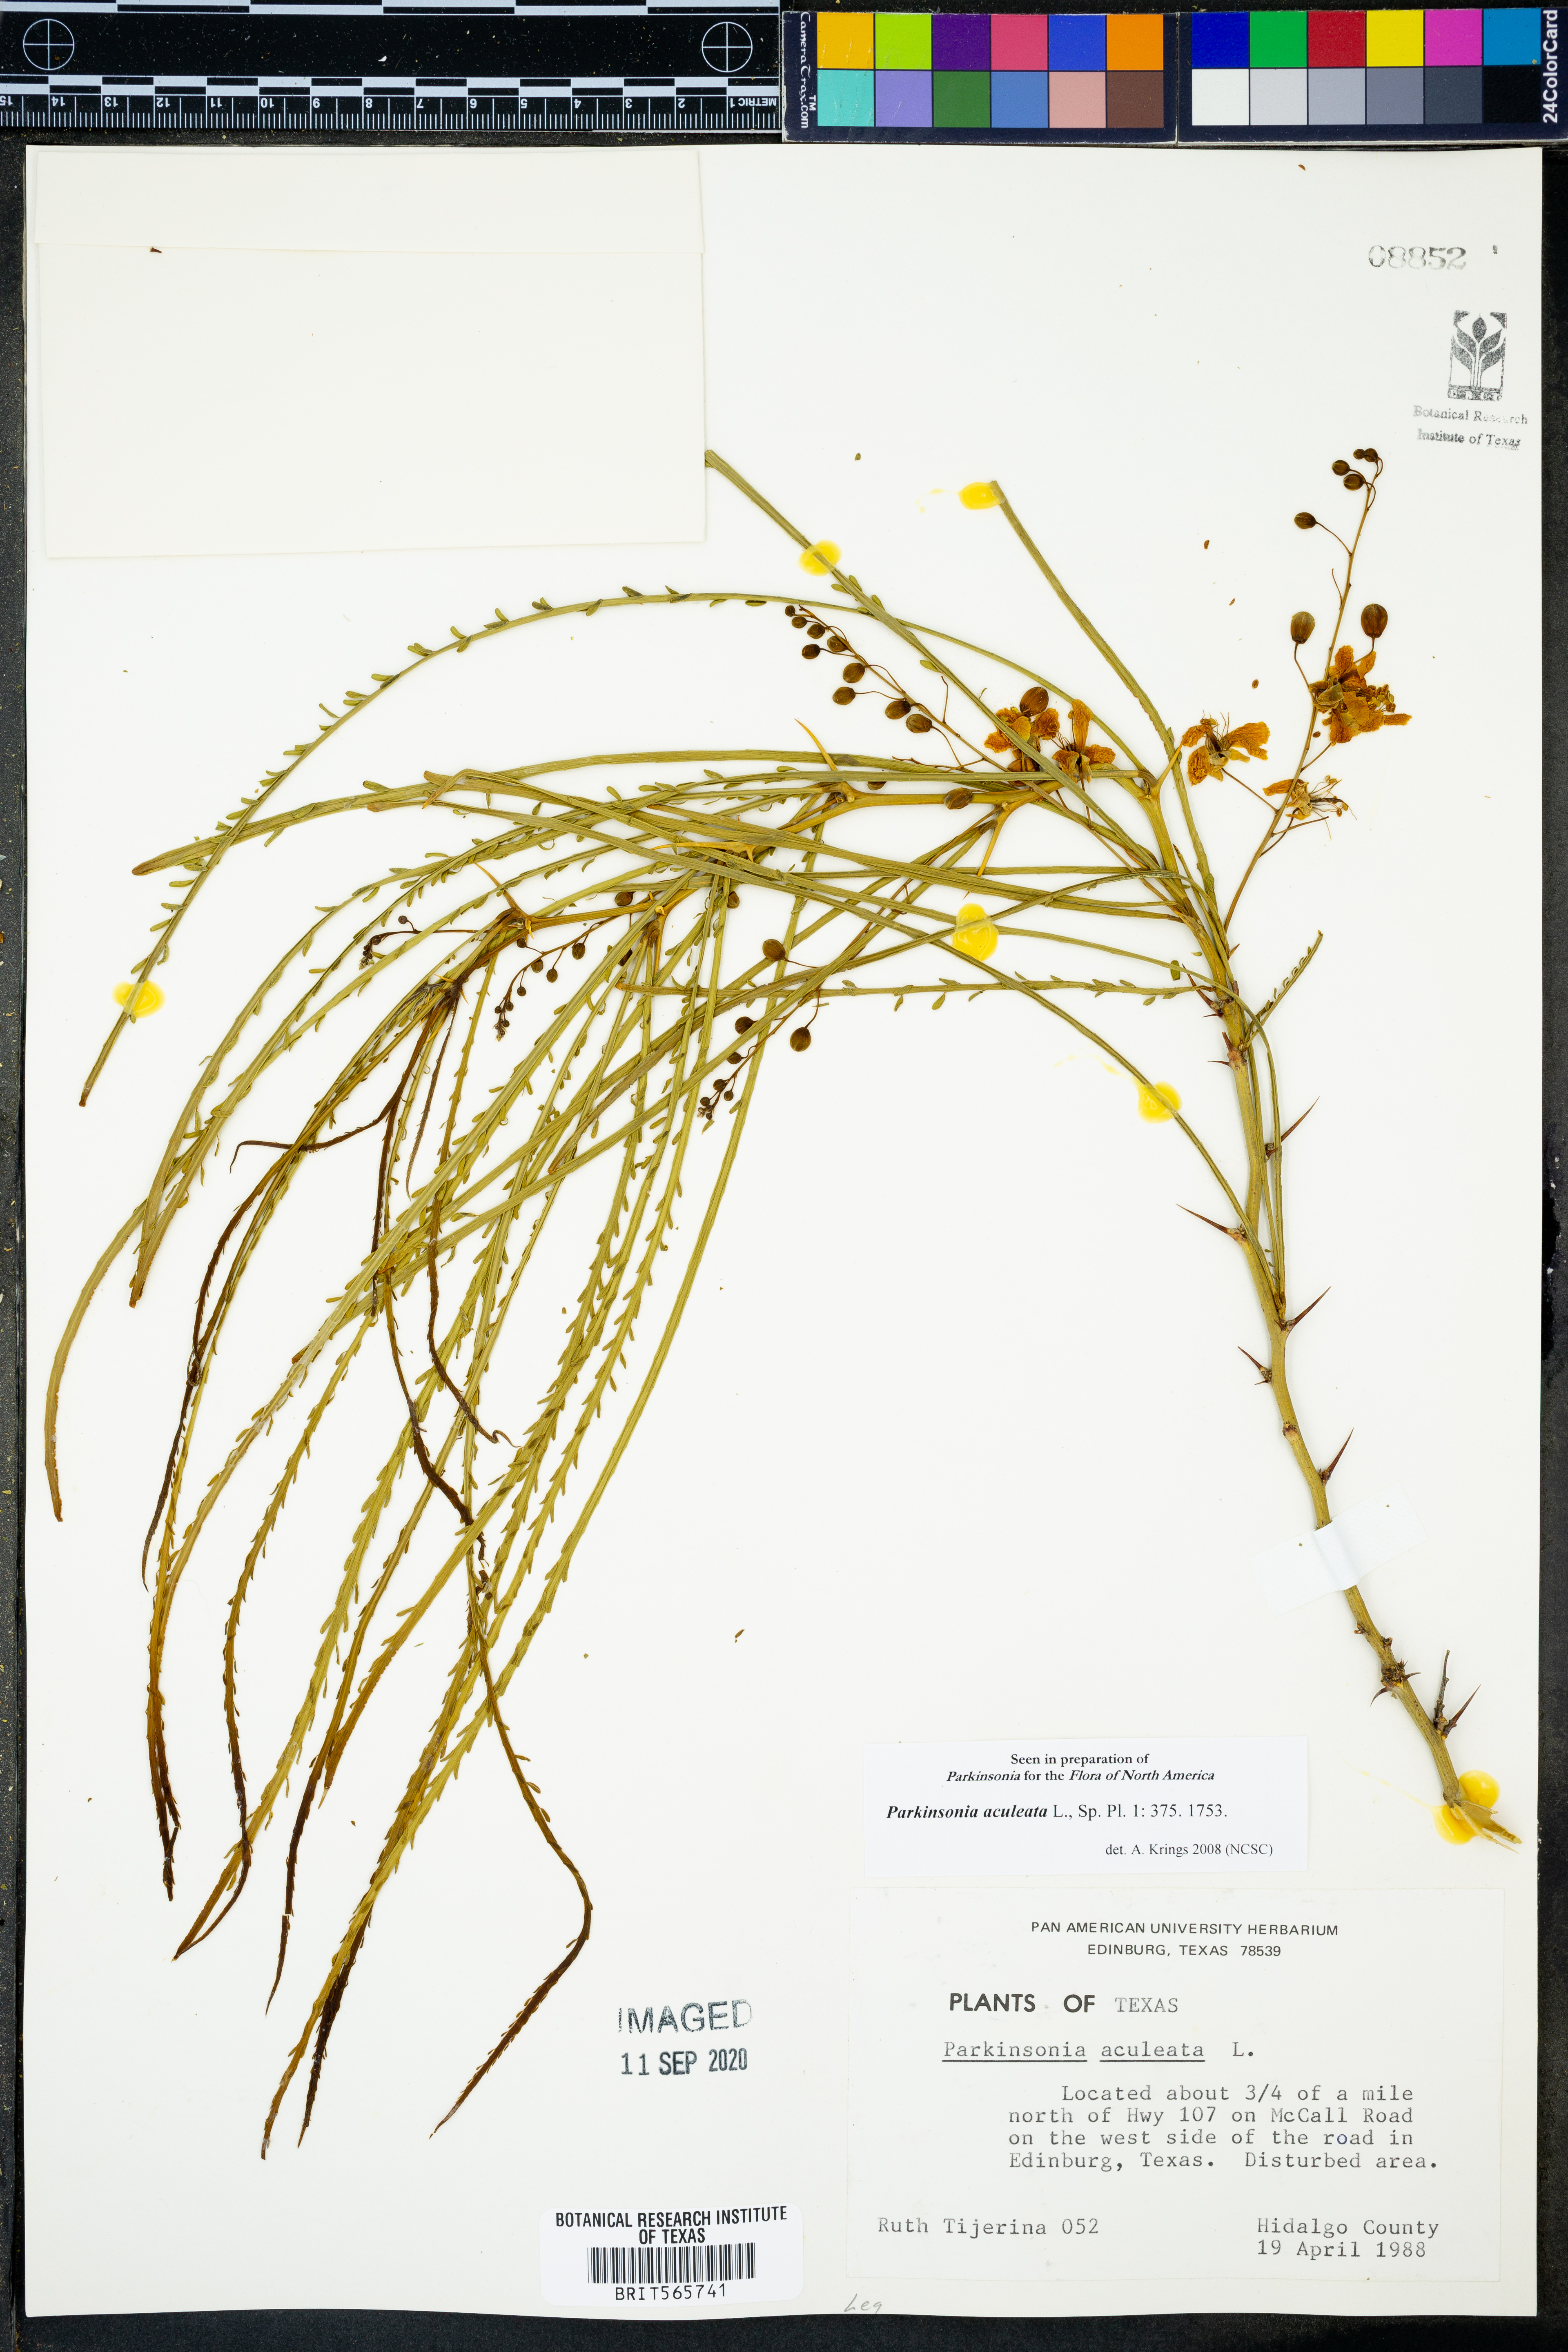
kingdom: Plantae
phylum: Tracheophyta
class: Magnoliopsida
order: Fabales
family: Fabaceae
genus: Parkinsonia
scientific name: Parkinsonia aculeata
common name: Jerusalem thorn
